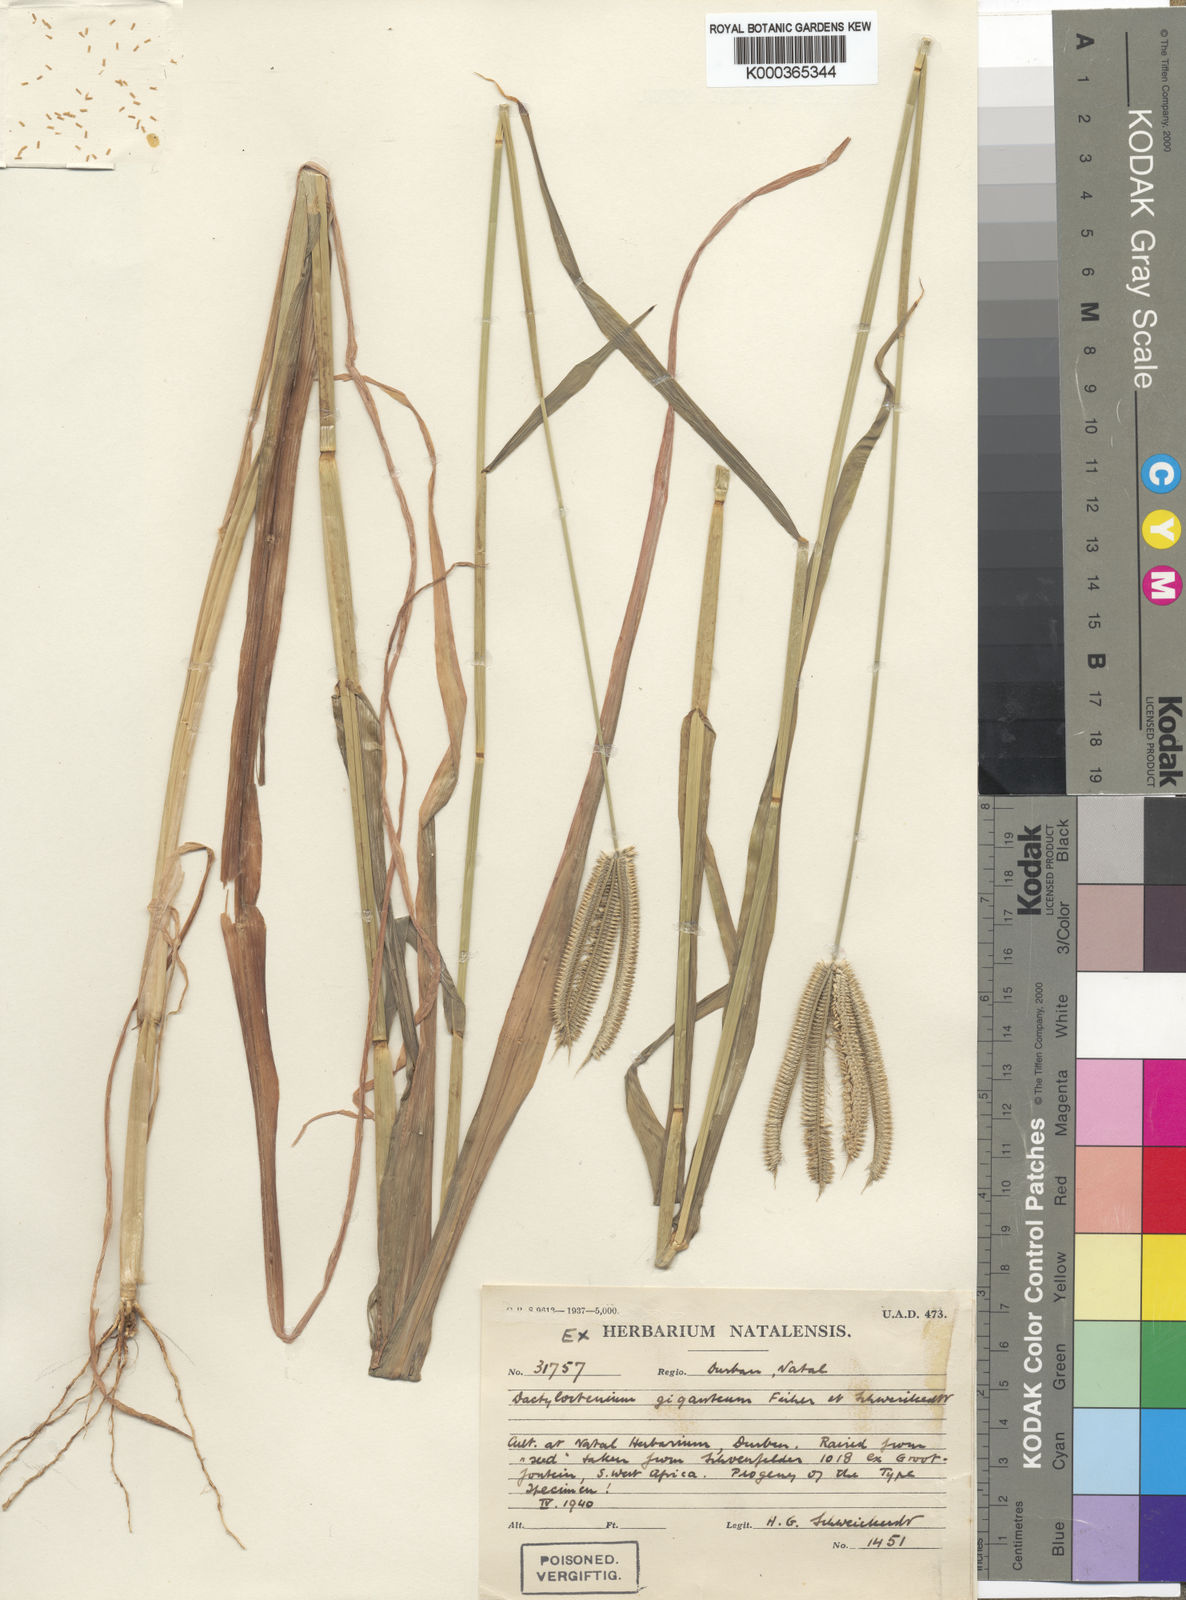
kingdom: Plantae
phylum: Tracheophyta
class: Liliopsida
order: Poales
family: Poaceae
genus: Dactyloctenium
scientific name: Dactyloctenium giganteum
